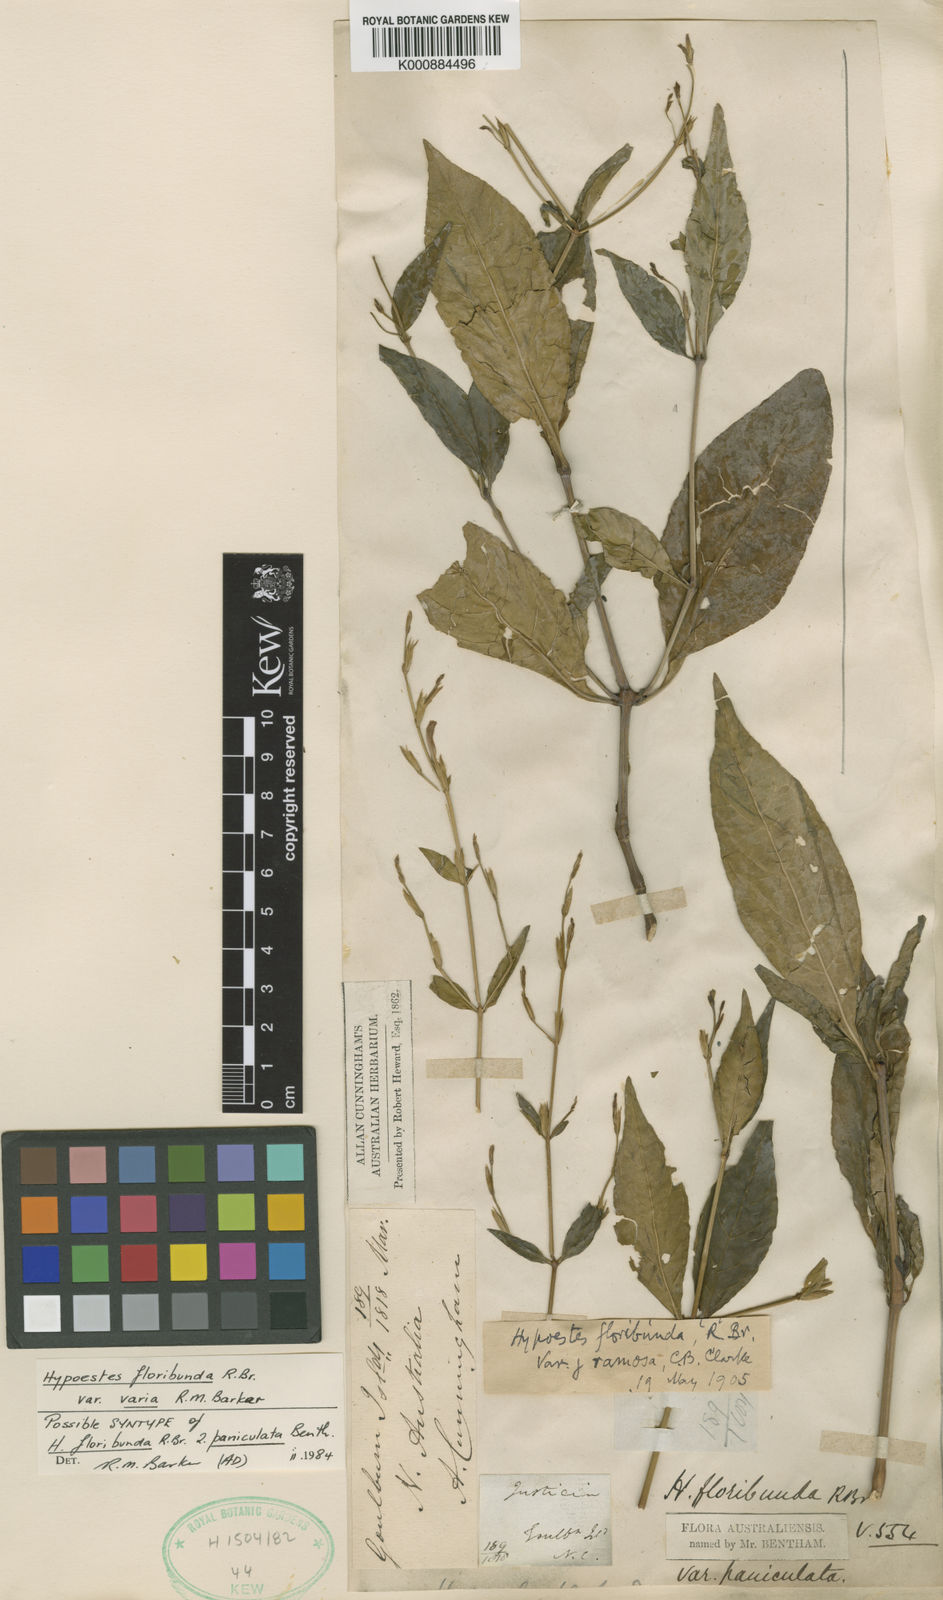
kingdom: Plantae
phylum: Tracheophyta
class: Magnoliopsida
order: Lamiales
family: Acanthaceae
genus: Hypoestes
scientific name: Hypoestes floribunda
